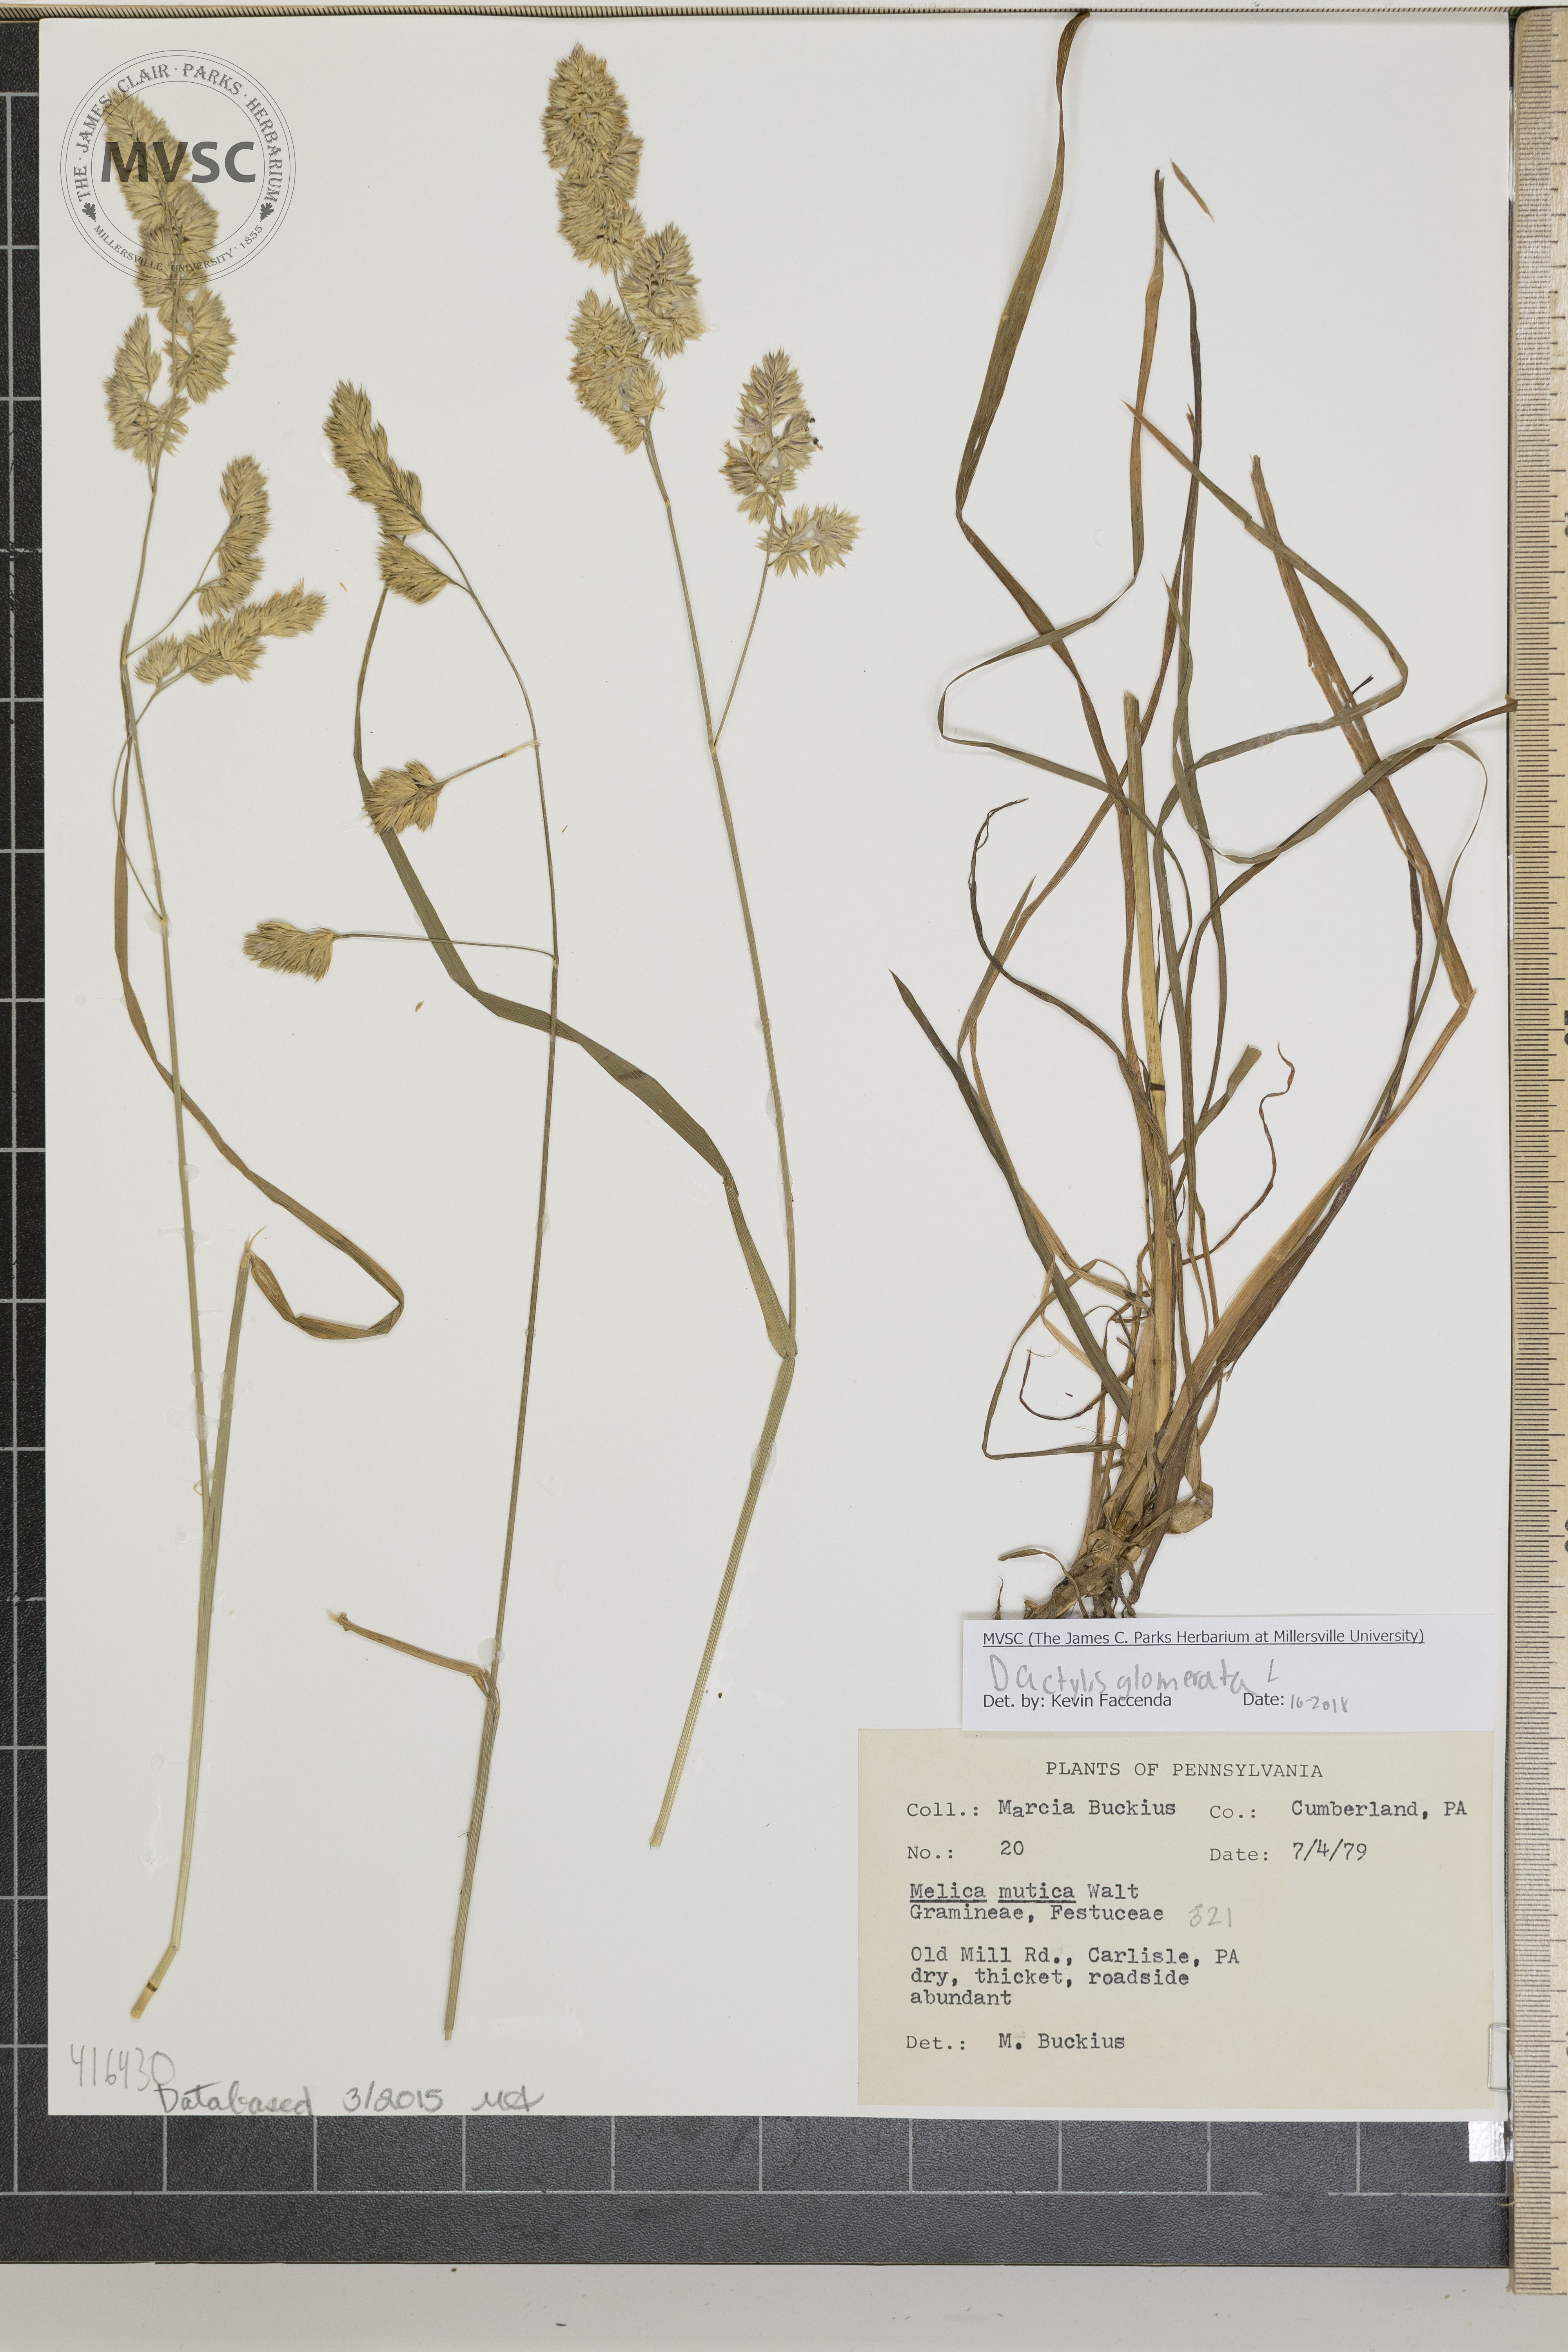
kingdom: Plantae
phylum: Tracheophyta
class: Liliopsida
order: Poales
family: Poaceae
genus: Dactylis
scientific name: Dactylis glomerata
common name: Orchardgrass
